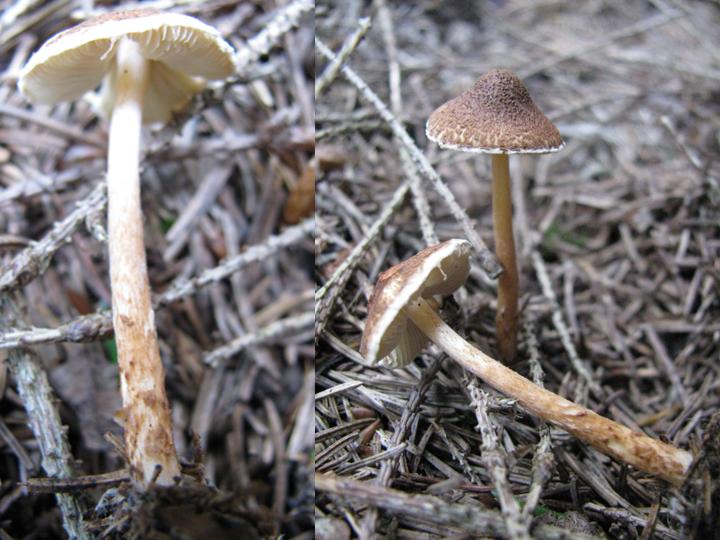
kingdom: Fungi
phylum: Basidiomycota
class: Agaricomycetes
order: Agaricales
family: Agaricaceae
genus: Lepiota
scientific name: Lepiota castanea
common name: kastaniebrun parasolhat
